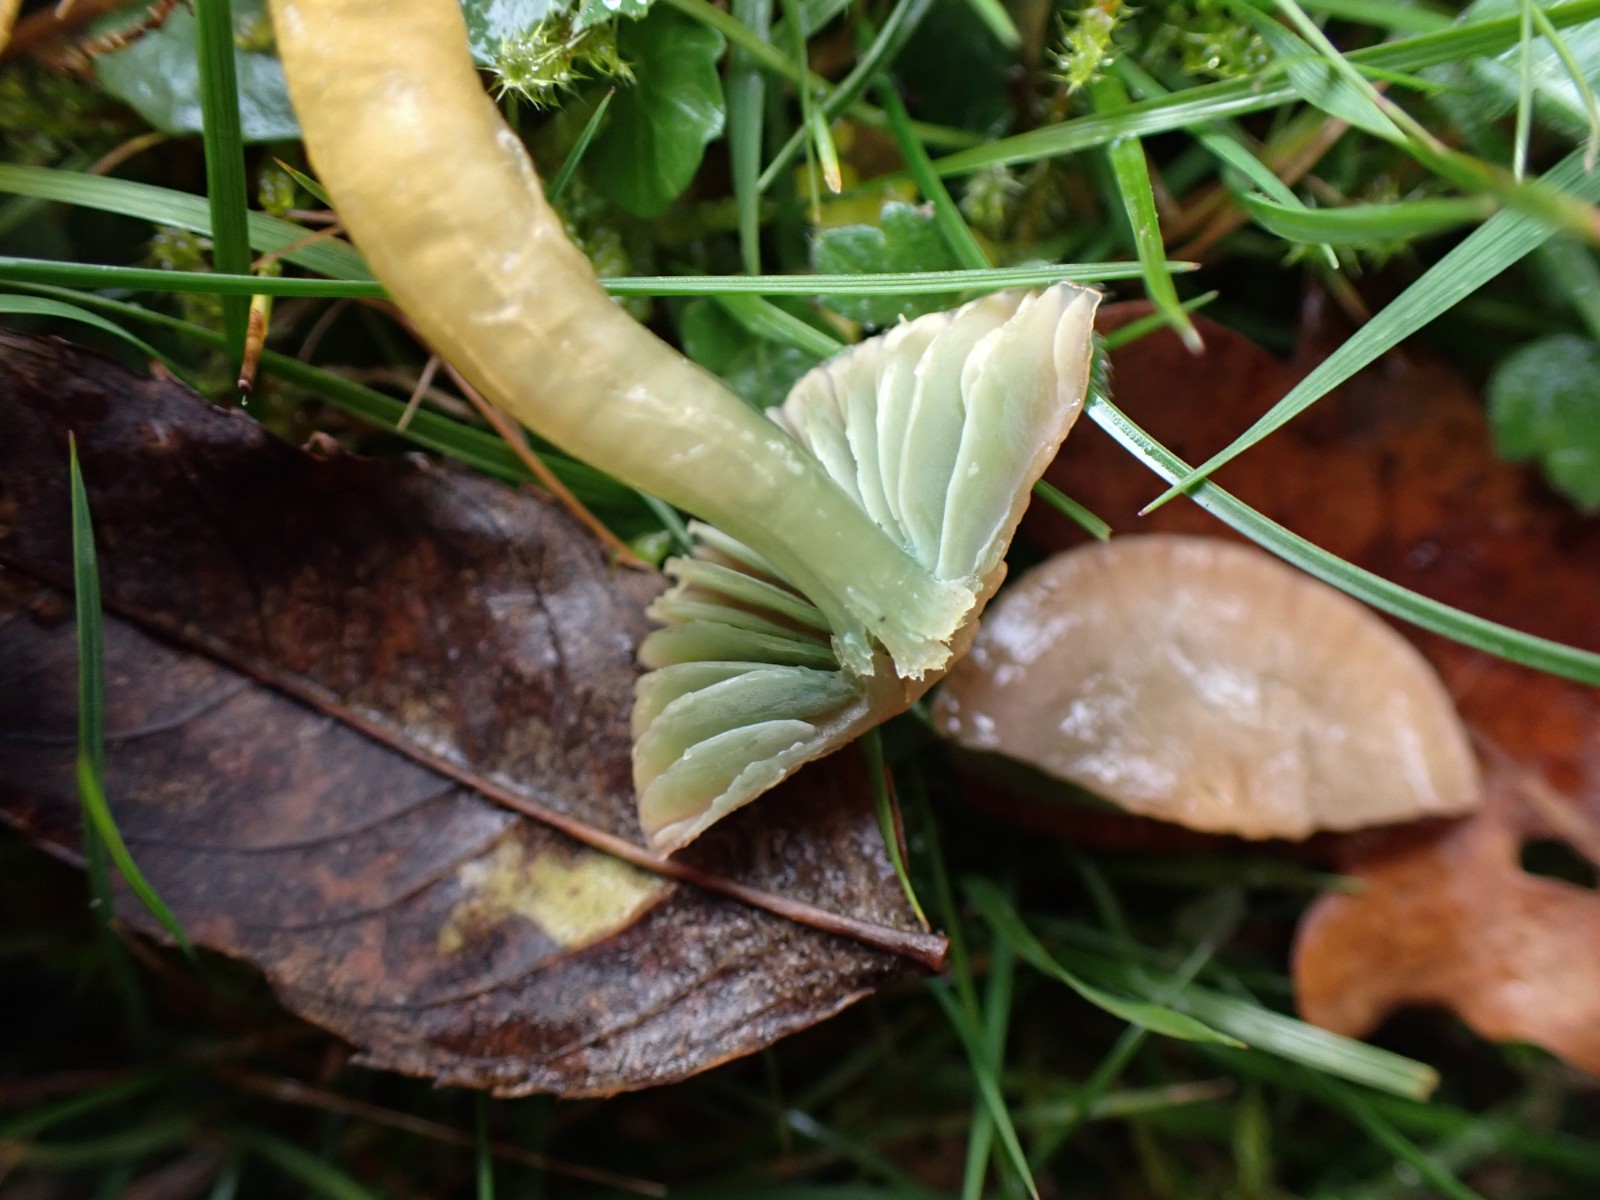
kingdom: Fungi
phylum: Basidiomycota
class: Agaricomycetes
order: Agaricales
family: Hygrophoraceae
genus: Gliophorus
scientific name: Gliophorus psittacinus
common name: papegøje-vokshat
